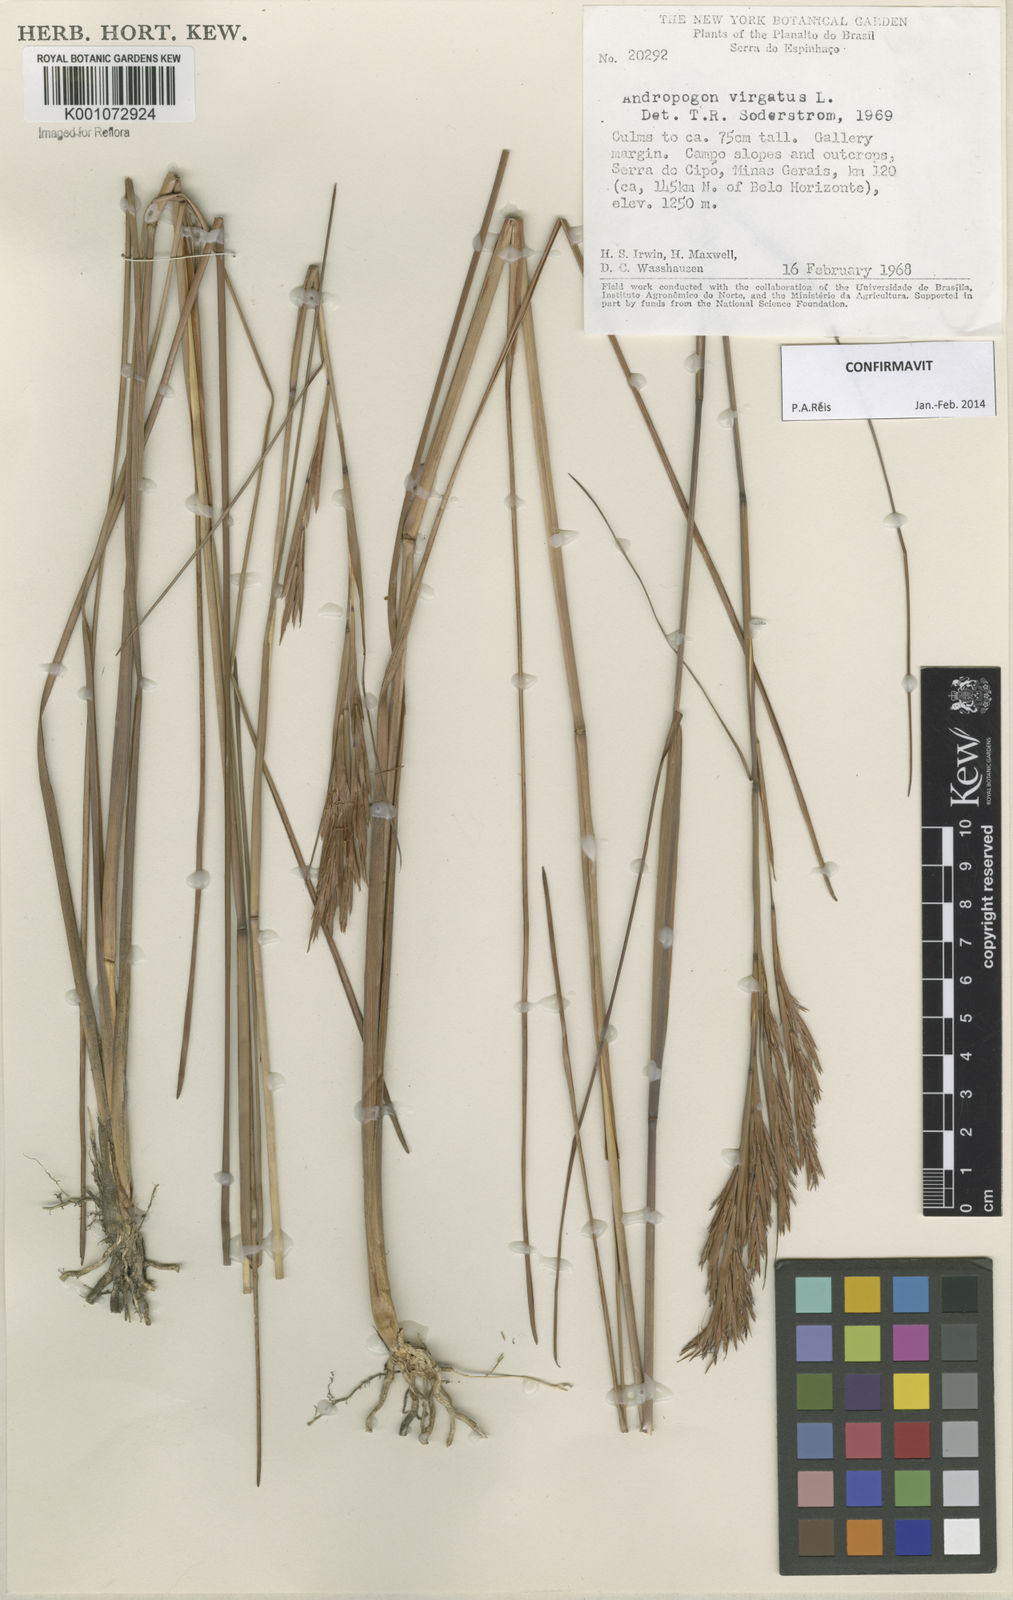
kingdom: Plantae
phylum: Tracheophyta
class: Liliopsida
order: Poales
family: Poaceae
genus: Andropogon
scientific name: Andropogon virgatus
